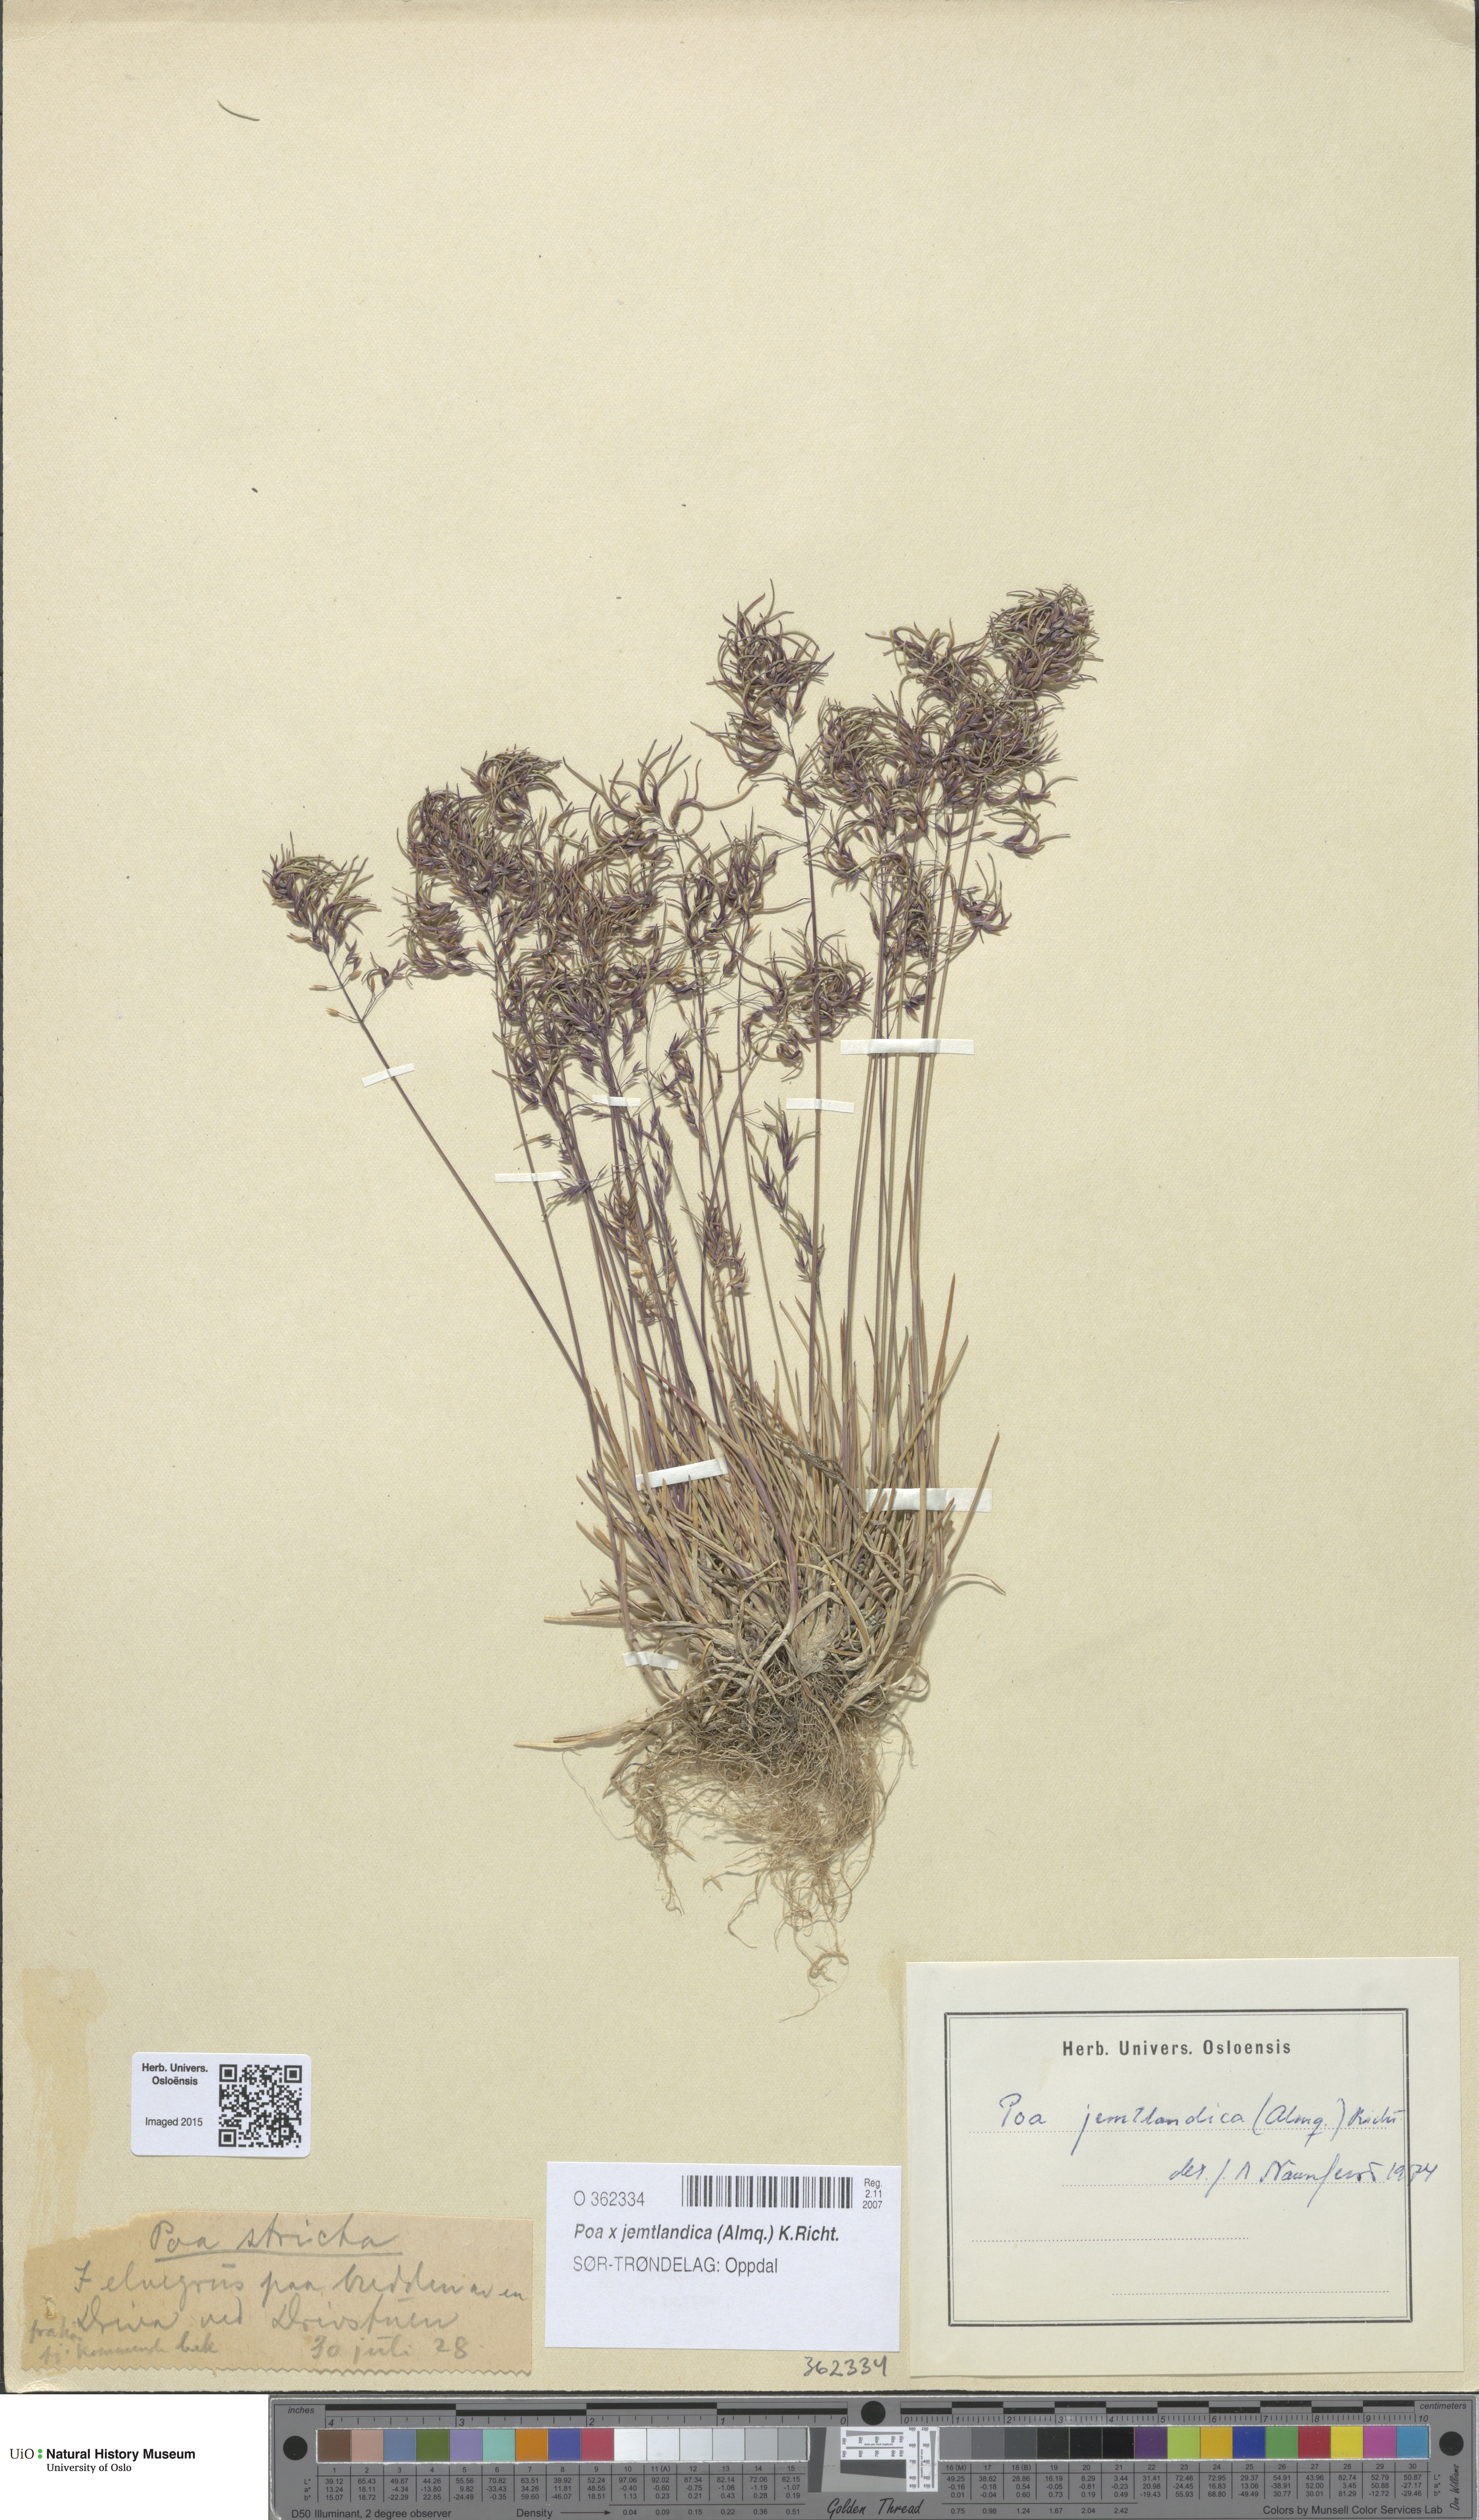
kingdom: Plantae
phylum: Tracheophyta
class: Liliopsida
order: Poales
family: Poaceae
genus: Poa
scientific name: Poa jemtlandica
